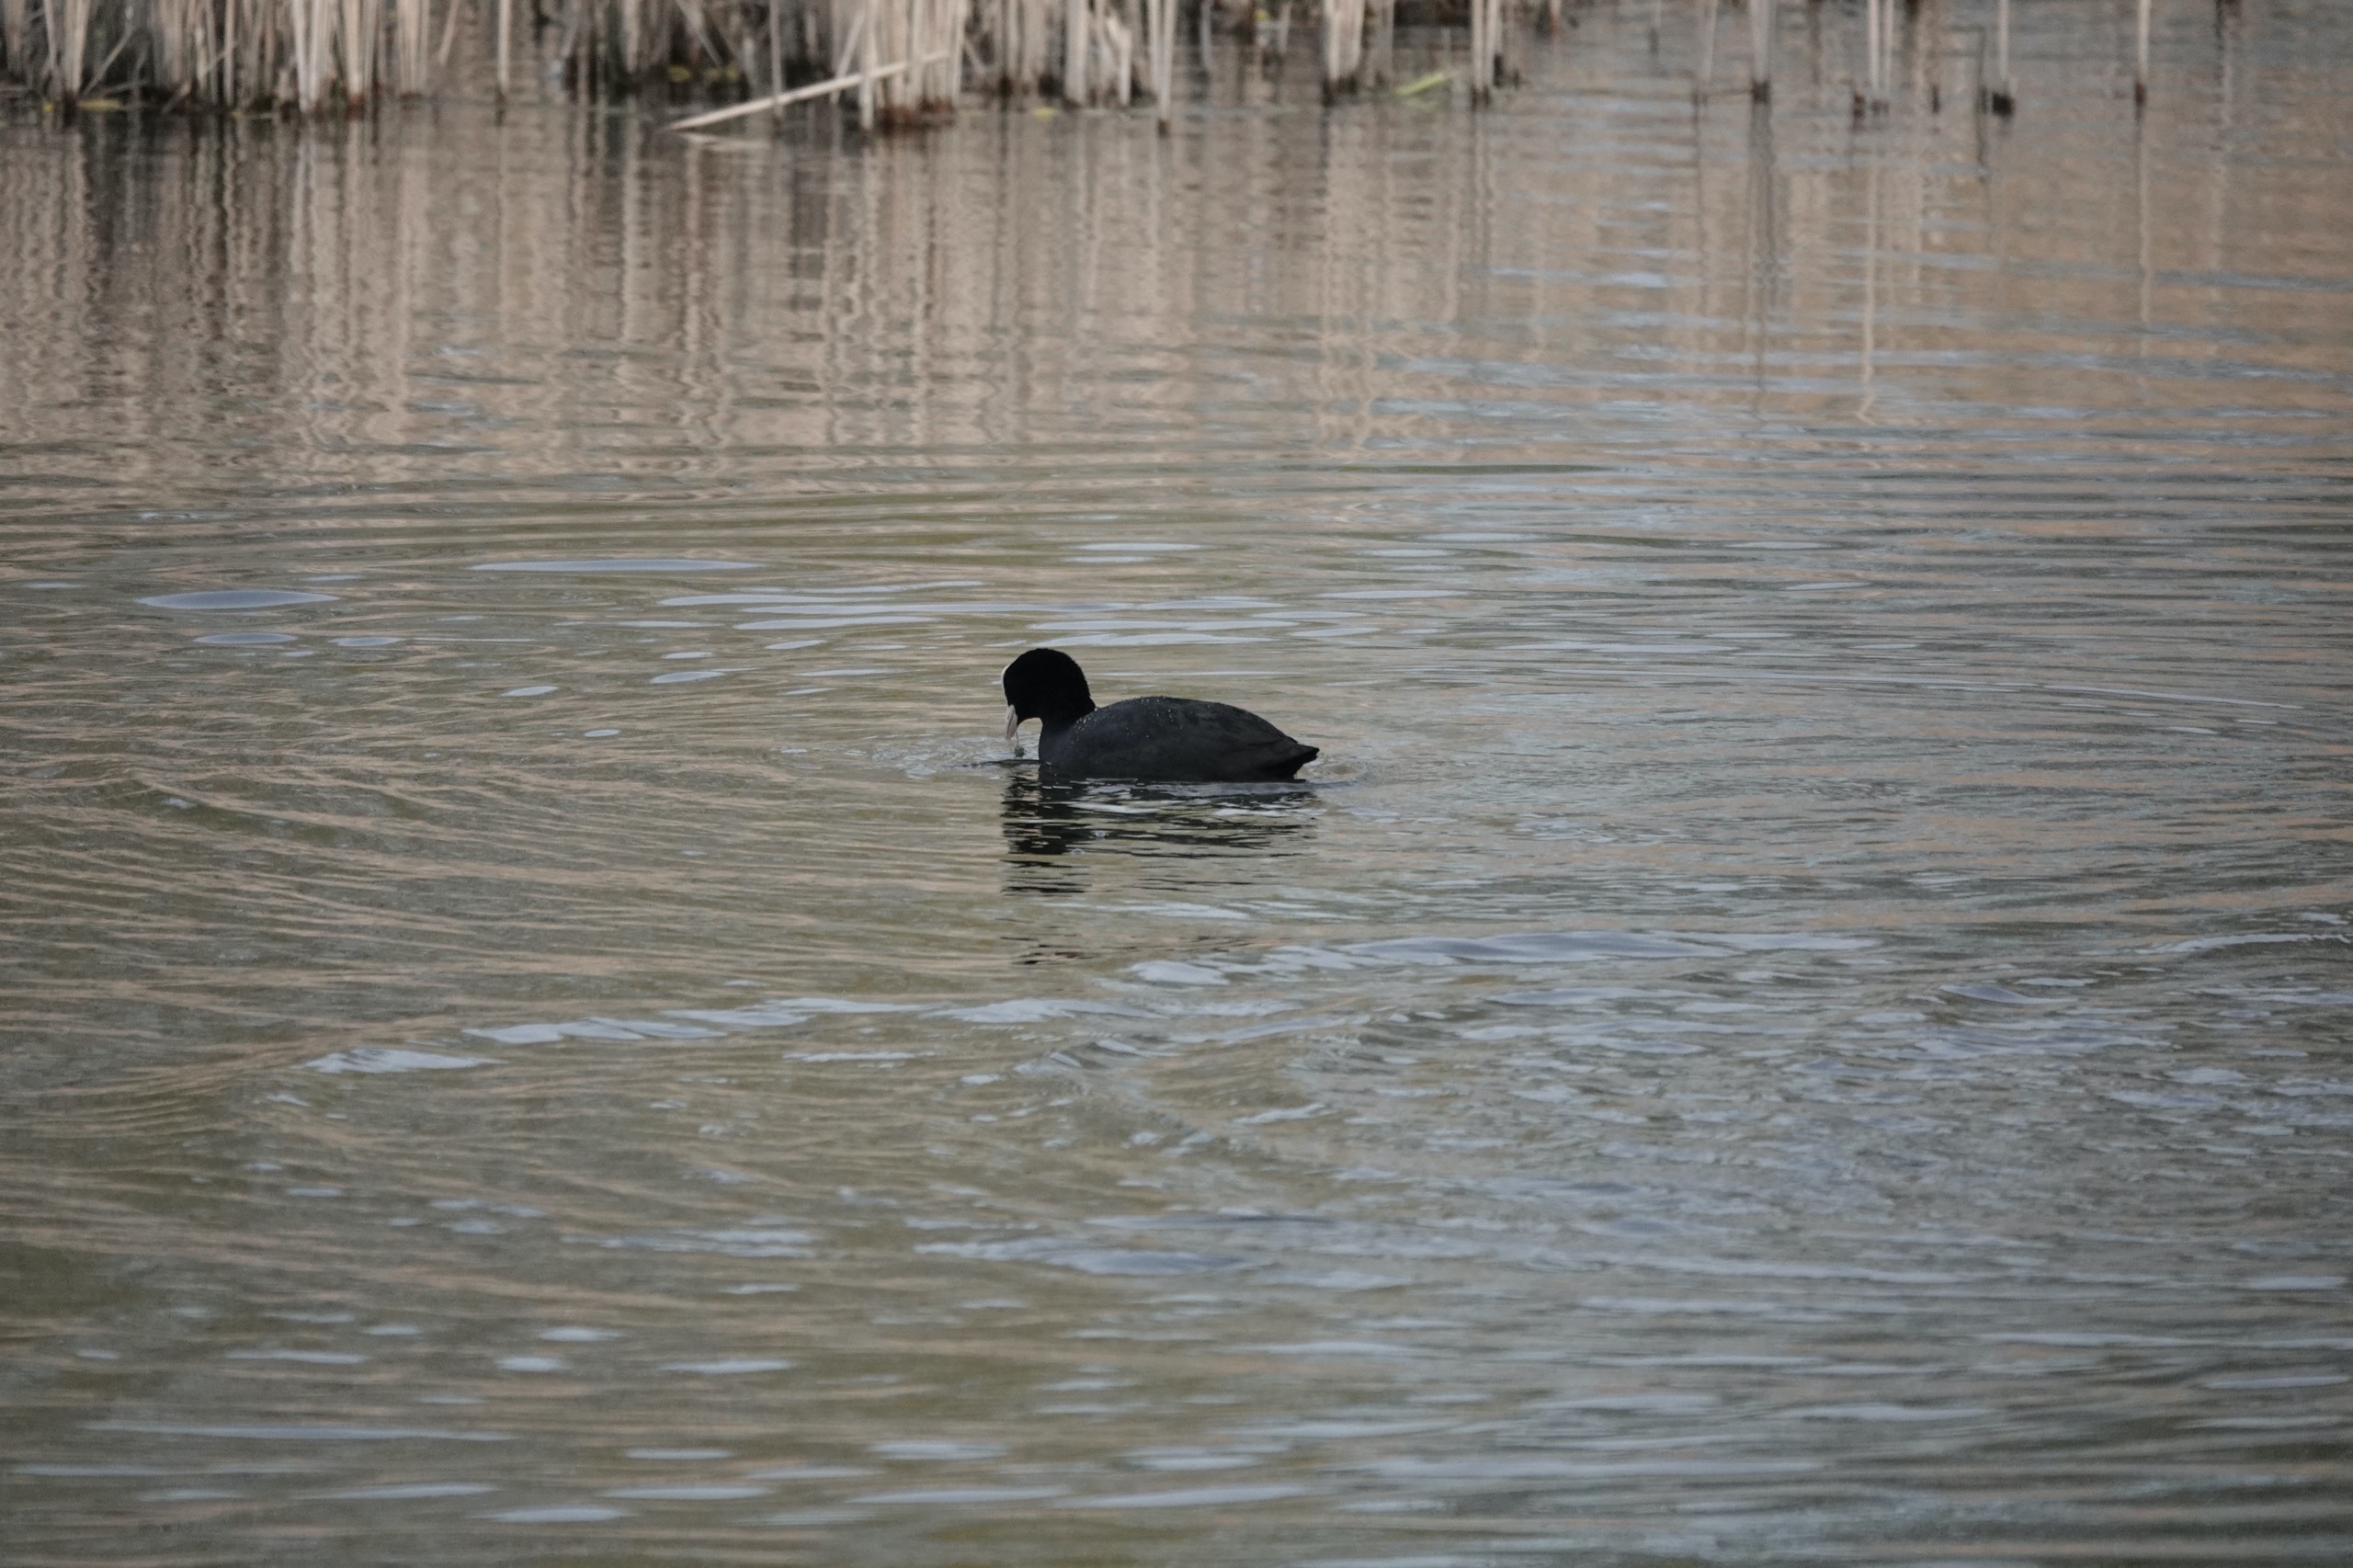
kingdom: Animalia
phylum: Chordata
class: Aves
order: Gruiformes
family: Rallidae
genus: Fulica
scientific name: Fulica atra
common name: Blishøne
